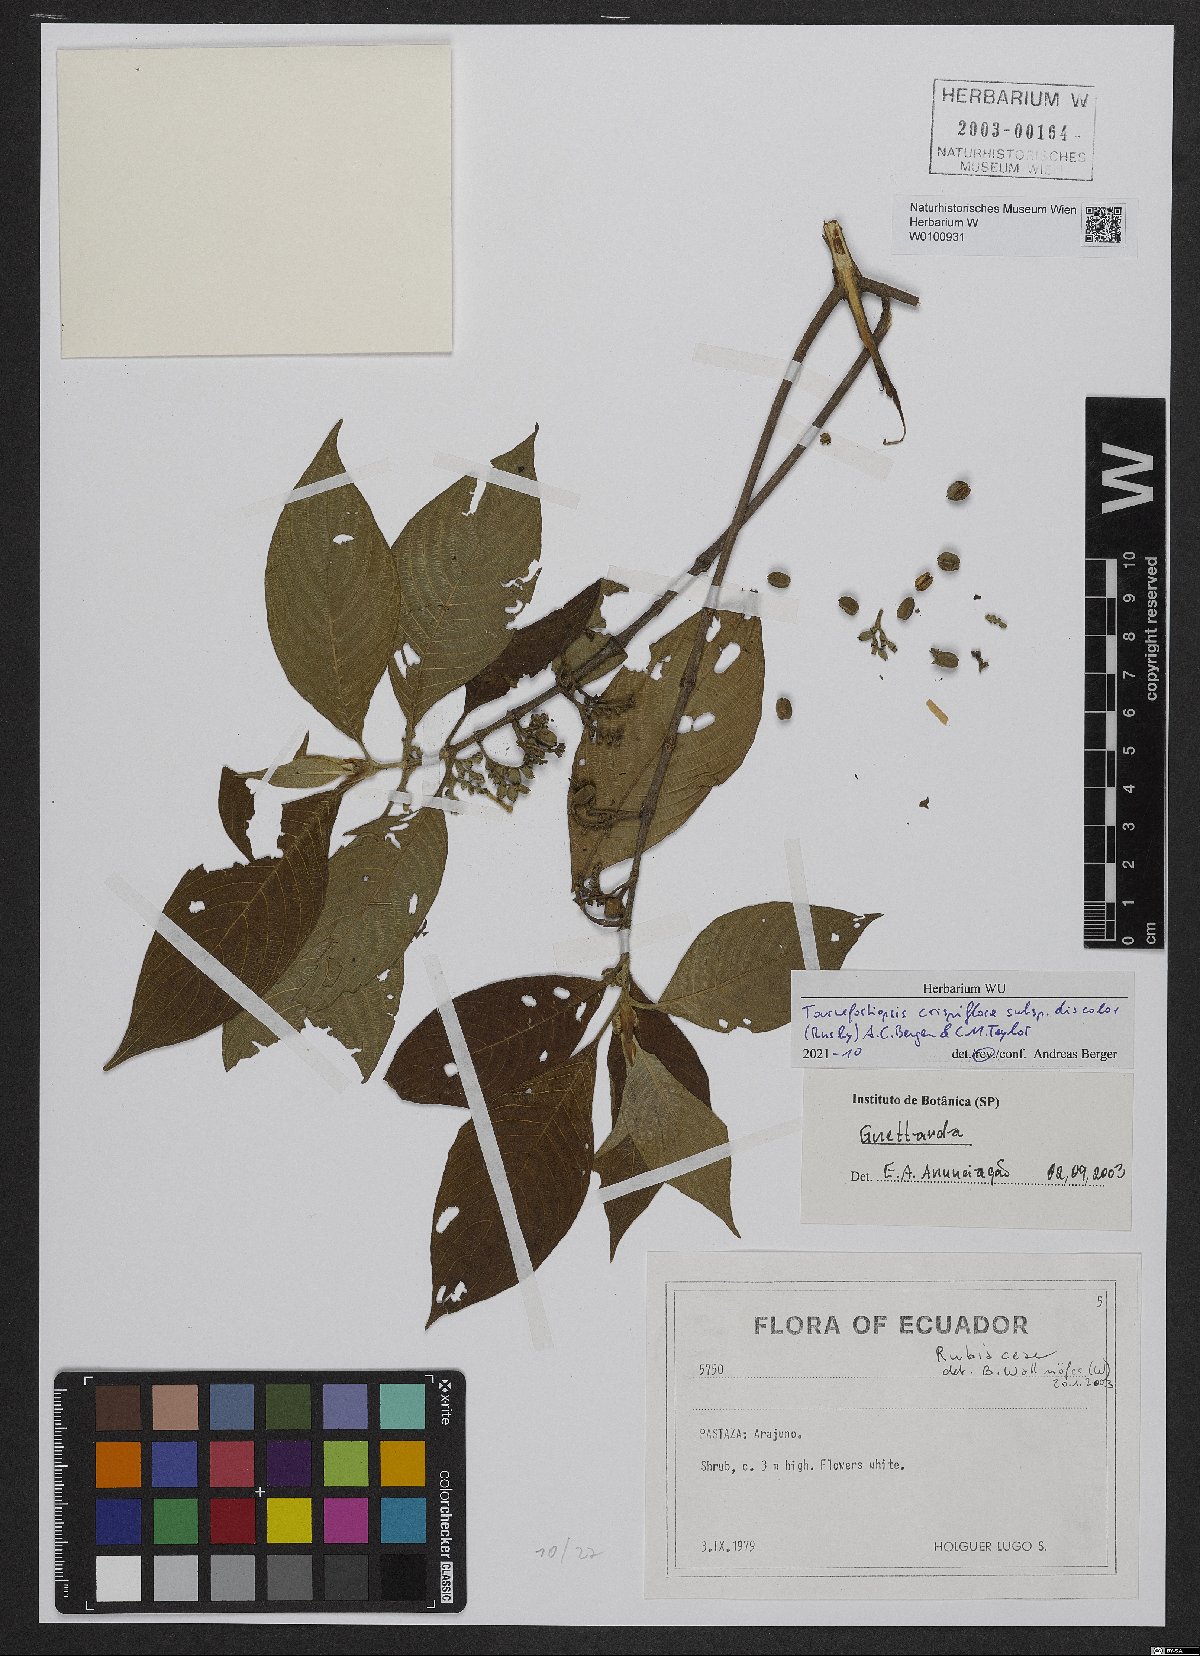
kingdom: Plantae
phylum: Tracheophyta
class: Magnoliopsida
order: Gentianales
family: Rubiaceae
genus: Tournefortiopsis
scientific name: Tournefortiopsis crispiflora
